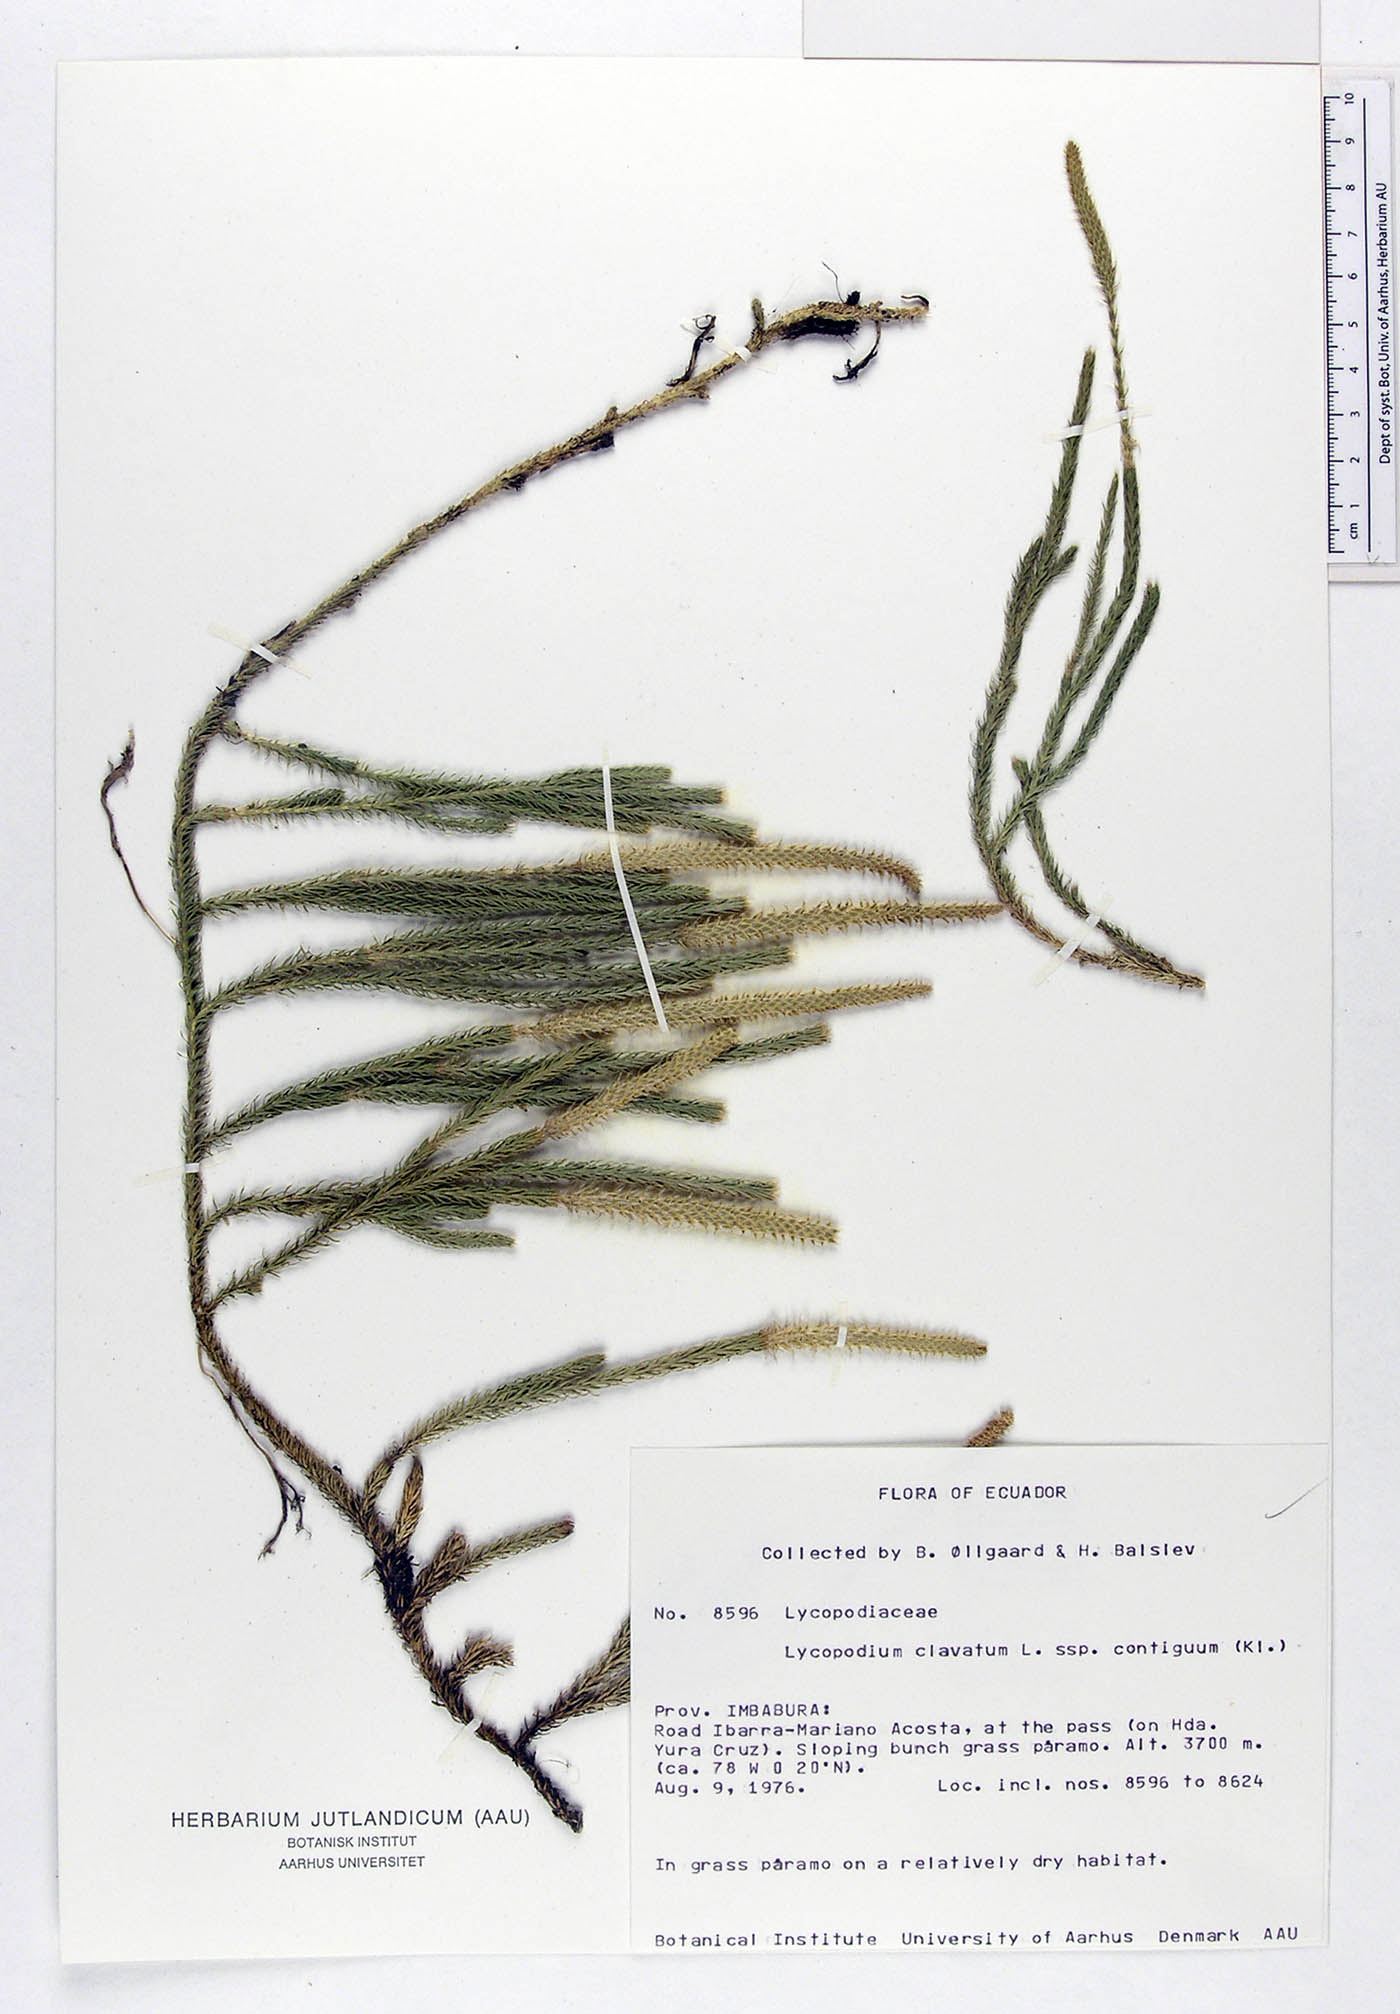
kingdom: Plantae
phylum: Tracheophyta
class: Lycopodiopsida
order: Lycopodiales
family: Lycopodiaceae
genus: Lycopodium
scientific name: Lycopodium clavatum
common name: Stag's-horn clubmoss
